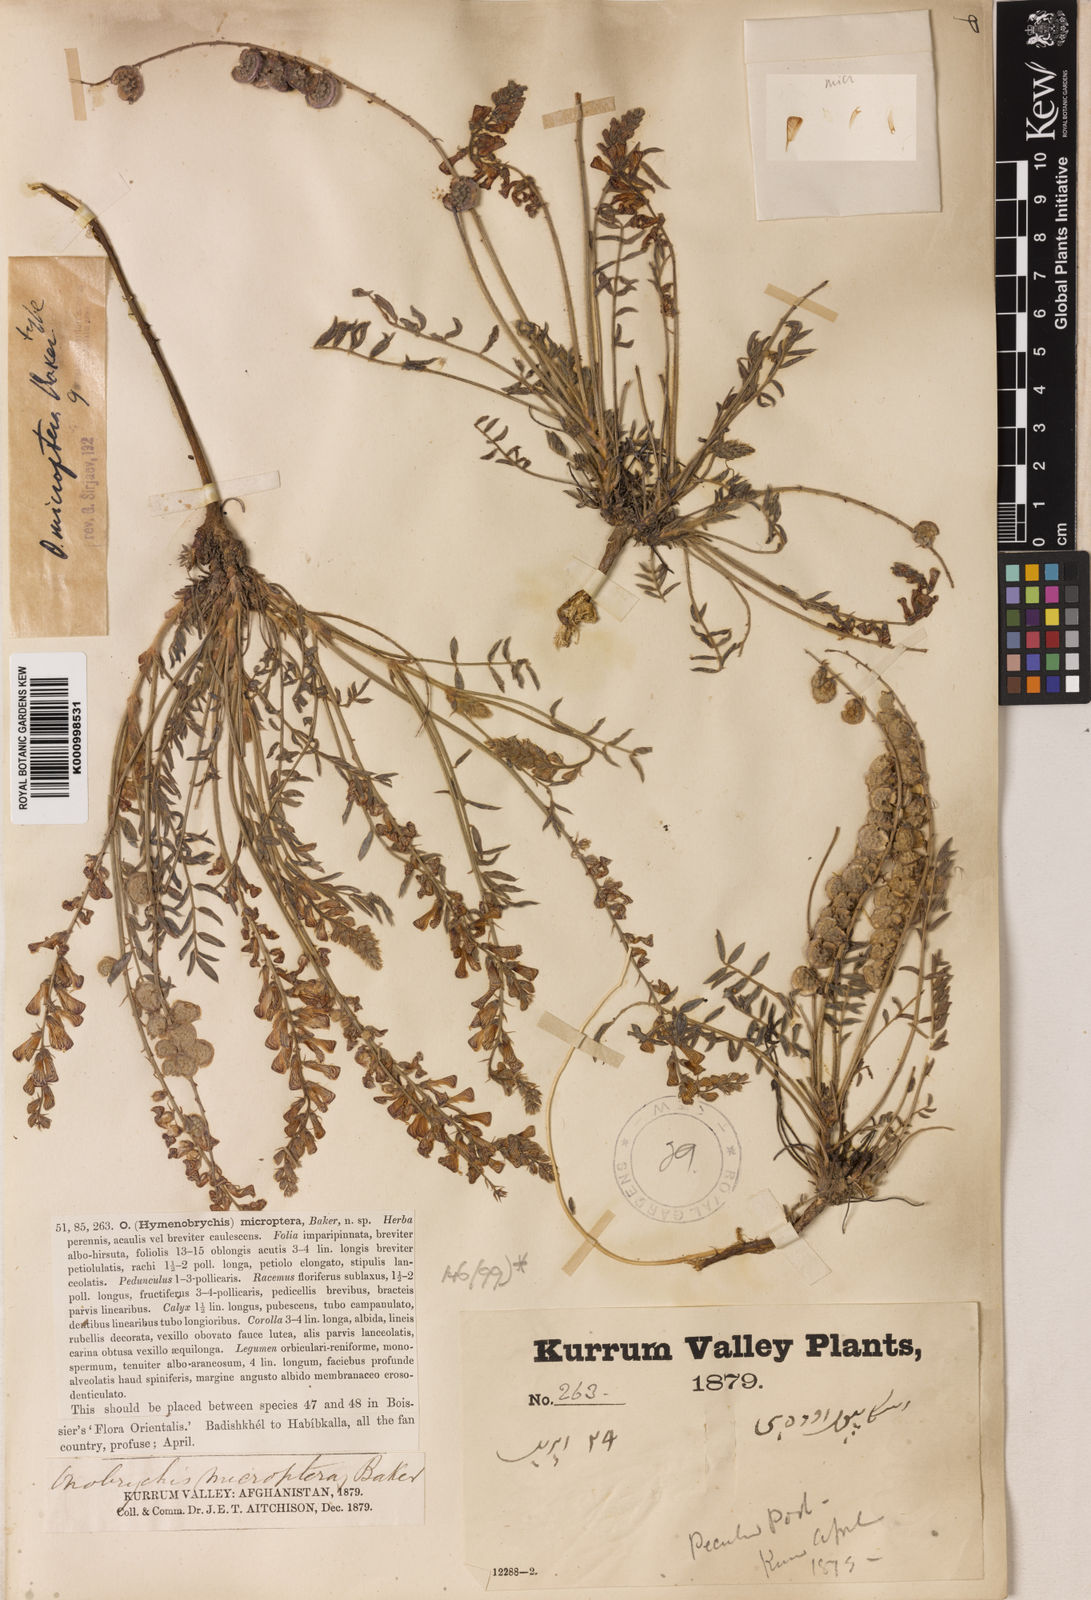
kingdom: Plantae
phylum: Tracheophyta
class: Magnoliopsida
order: Fabales
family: Fabaceae
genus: Onobrychis
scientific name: Onobrychis microptera
